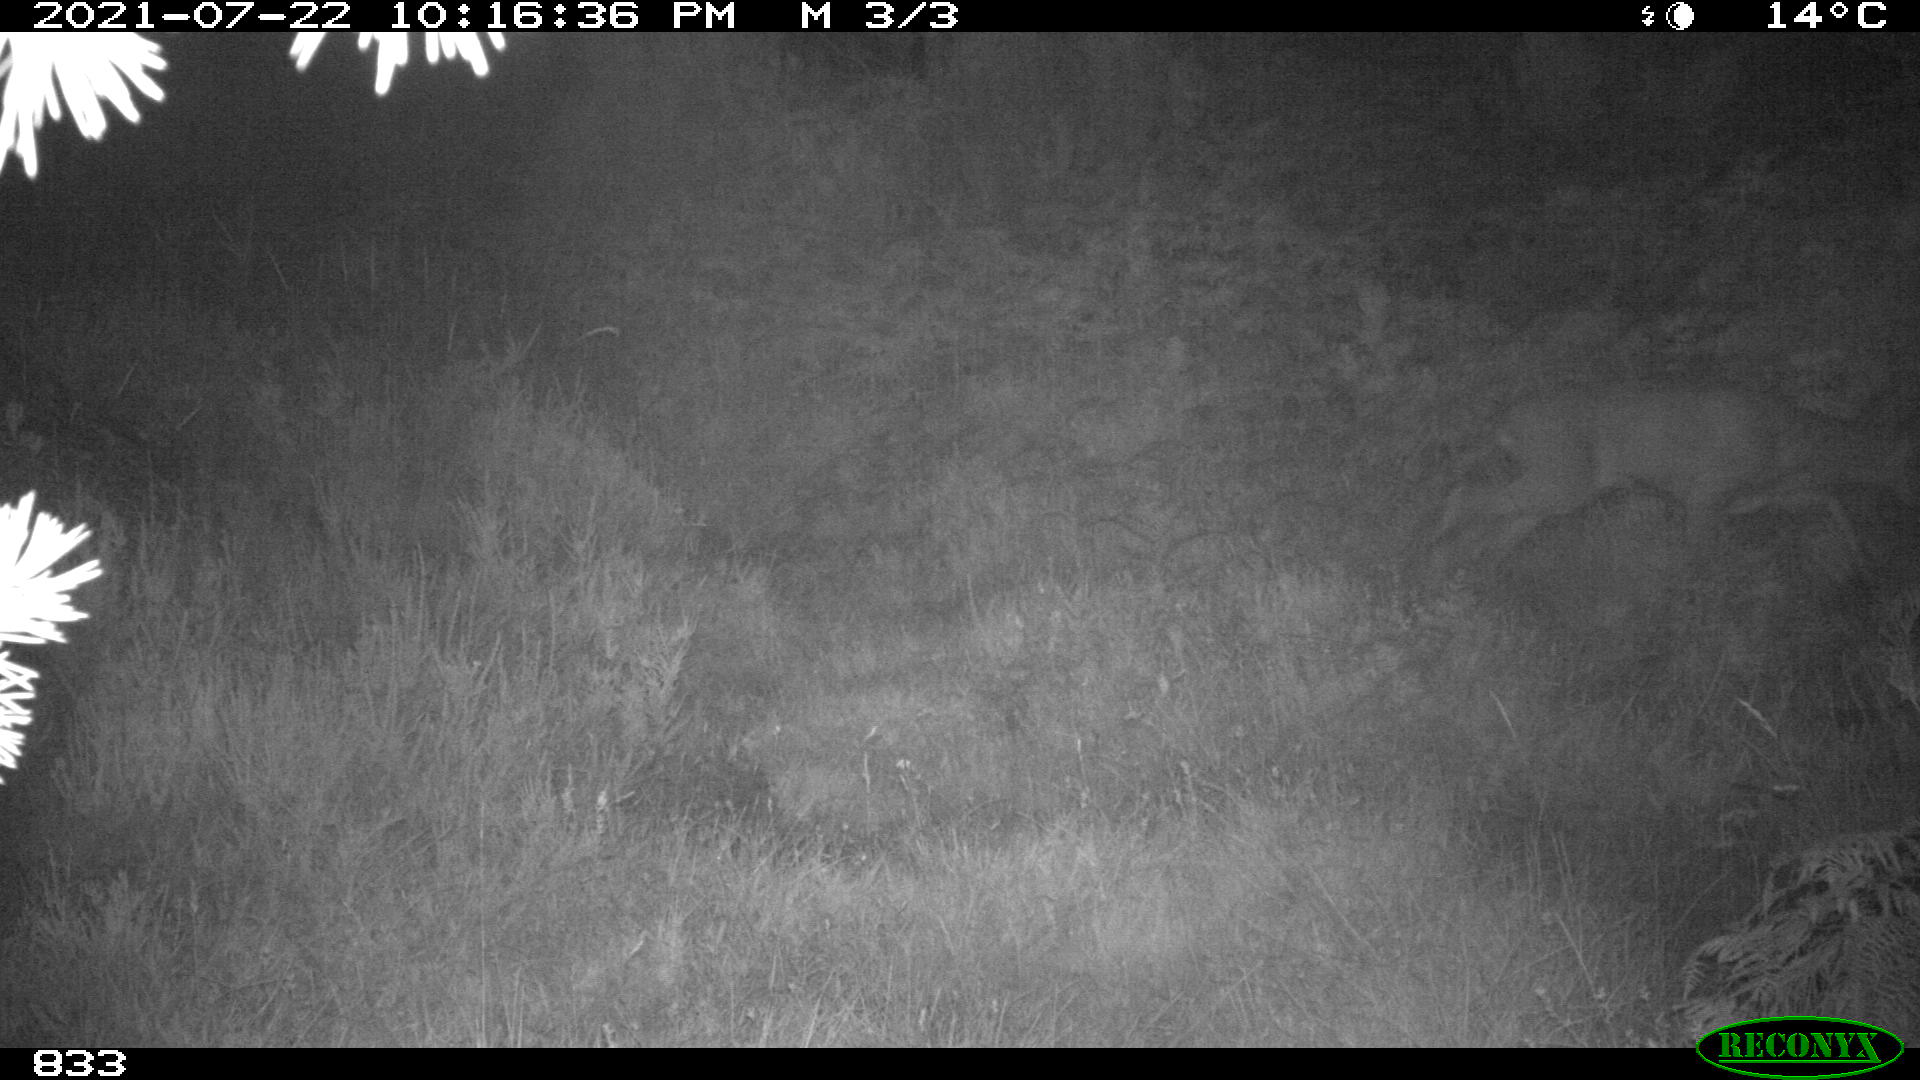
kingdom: Animalia
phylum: Chordata
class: Mammalia
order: Artiodactyla
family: Cervidae
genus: Capreolus
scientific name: Capreolus capreolus
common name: Western roe deer
